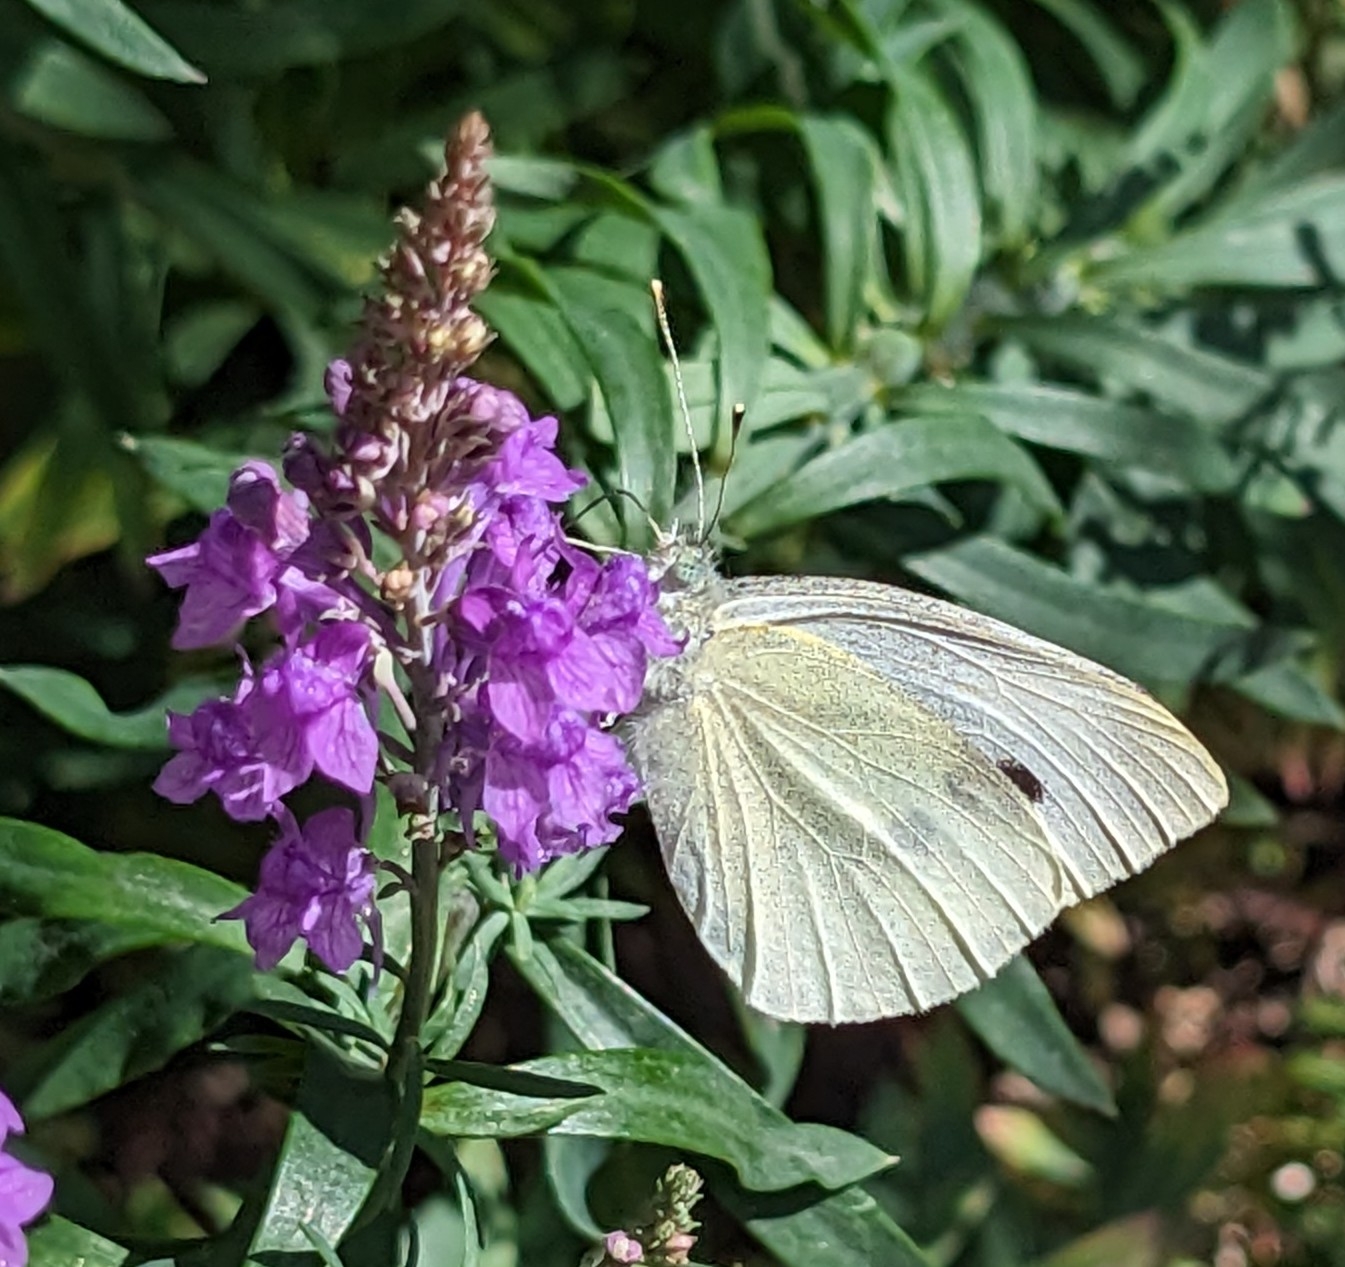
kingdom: Animalia
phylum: Arthropoda
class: Insecta
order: Lepidoptera
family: Pieridae
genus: Pieris
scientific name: Pieris brassicae
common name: Stor kålsommerfugl
